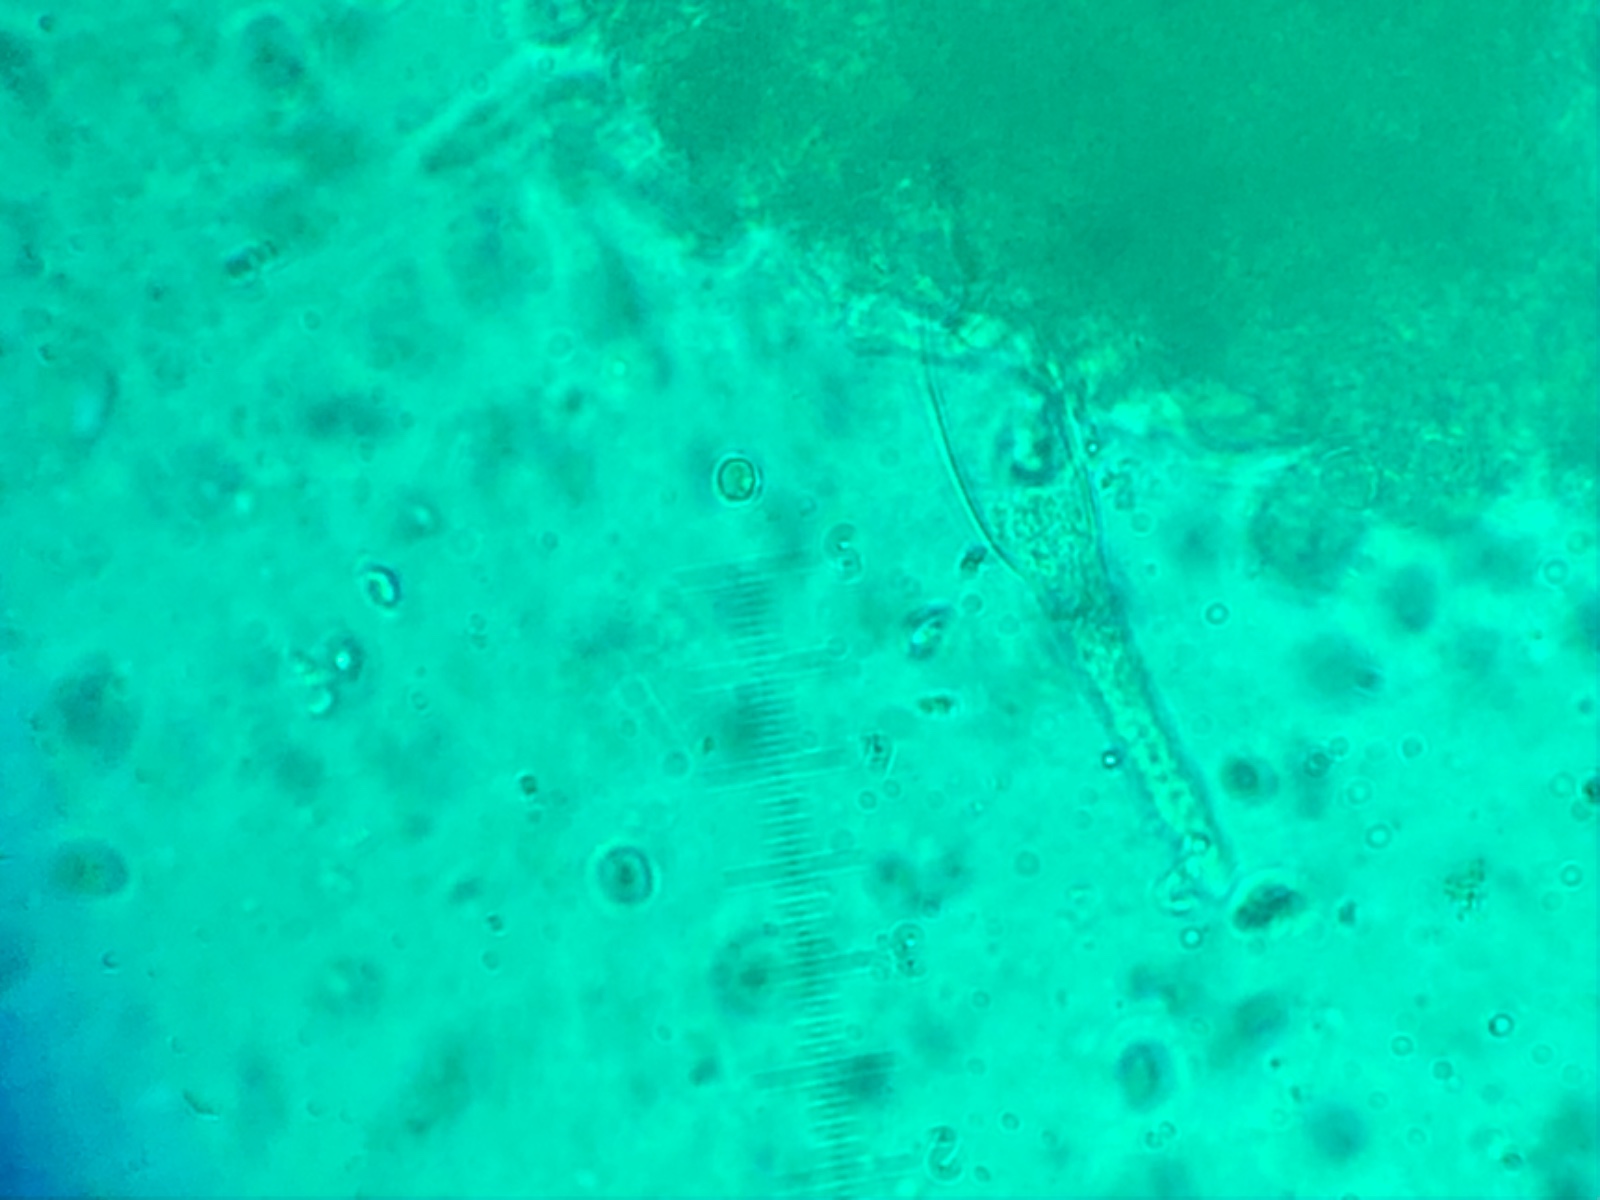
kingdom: Fungi
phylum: Basidiomycota
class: Agaricomycetes
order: Agaricales
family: Mycenaceae
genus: Mycena
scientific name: Mycena niveipes
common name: vår-huesvamp
